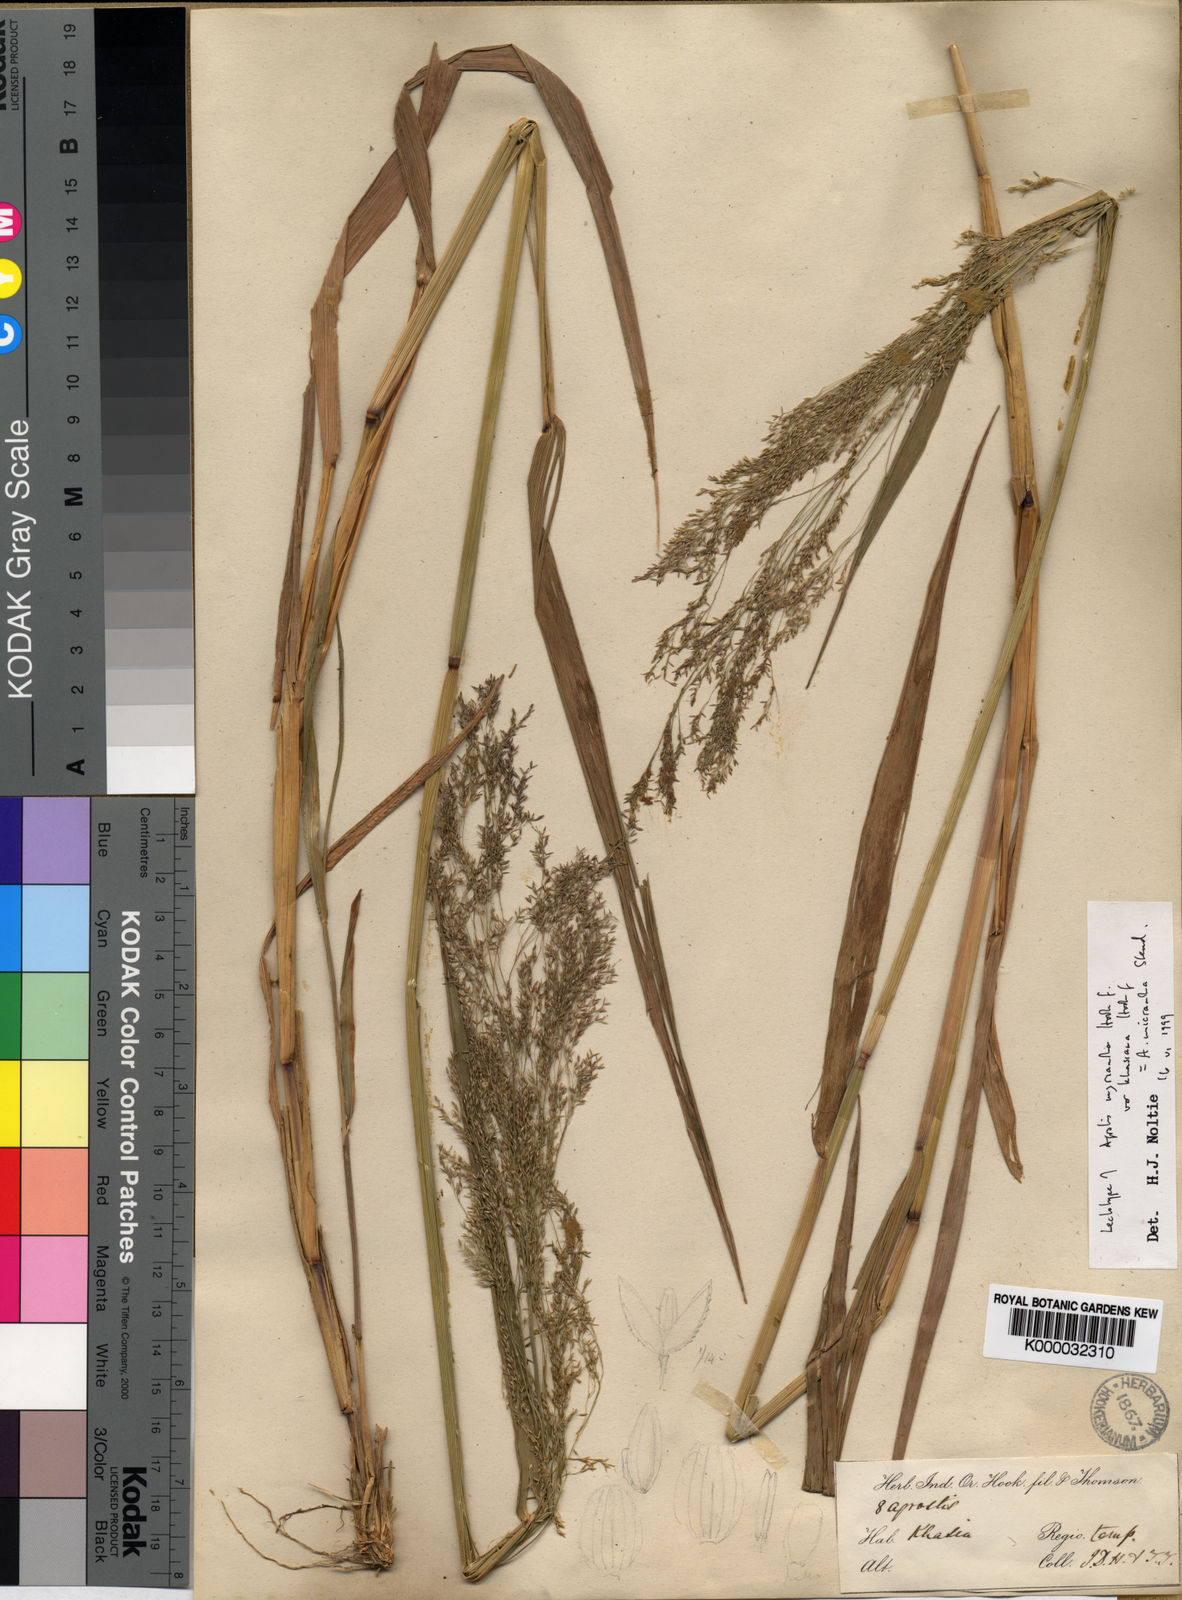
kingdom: Plantae
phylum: Tracheophyta
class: Liliopsida
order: Poales
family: Poaceae
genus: Agrostis
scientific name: Agrostis micrantha
